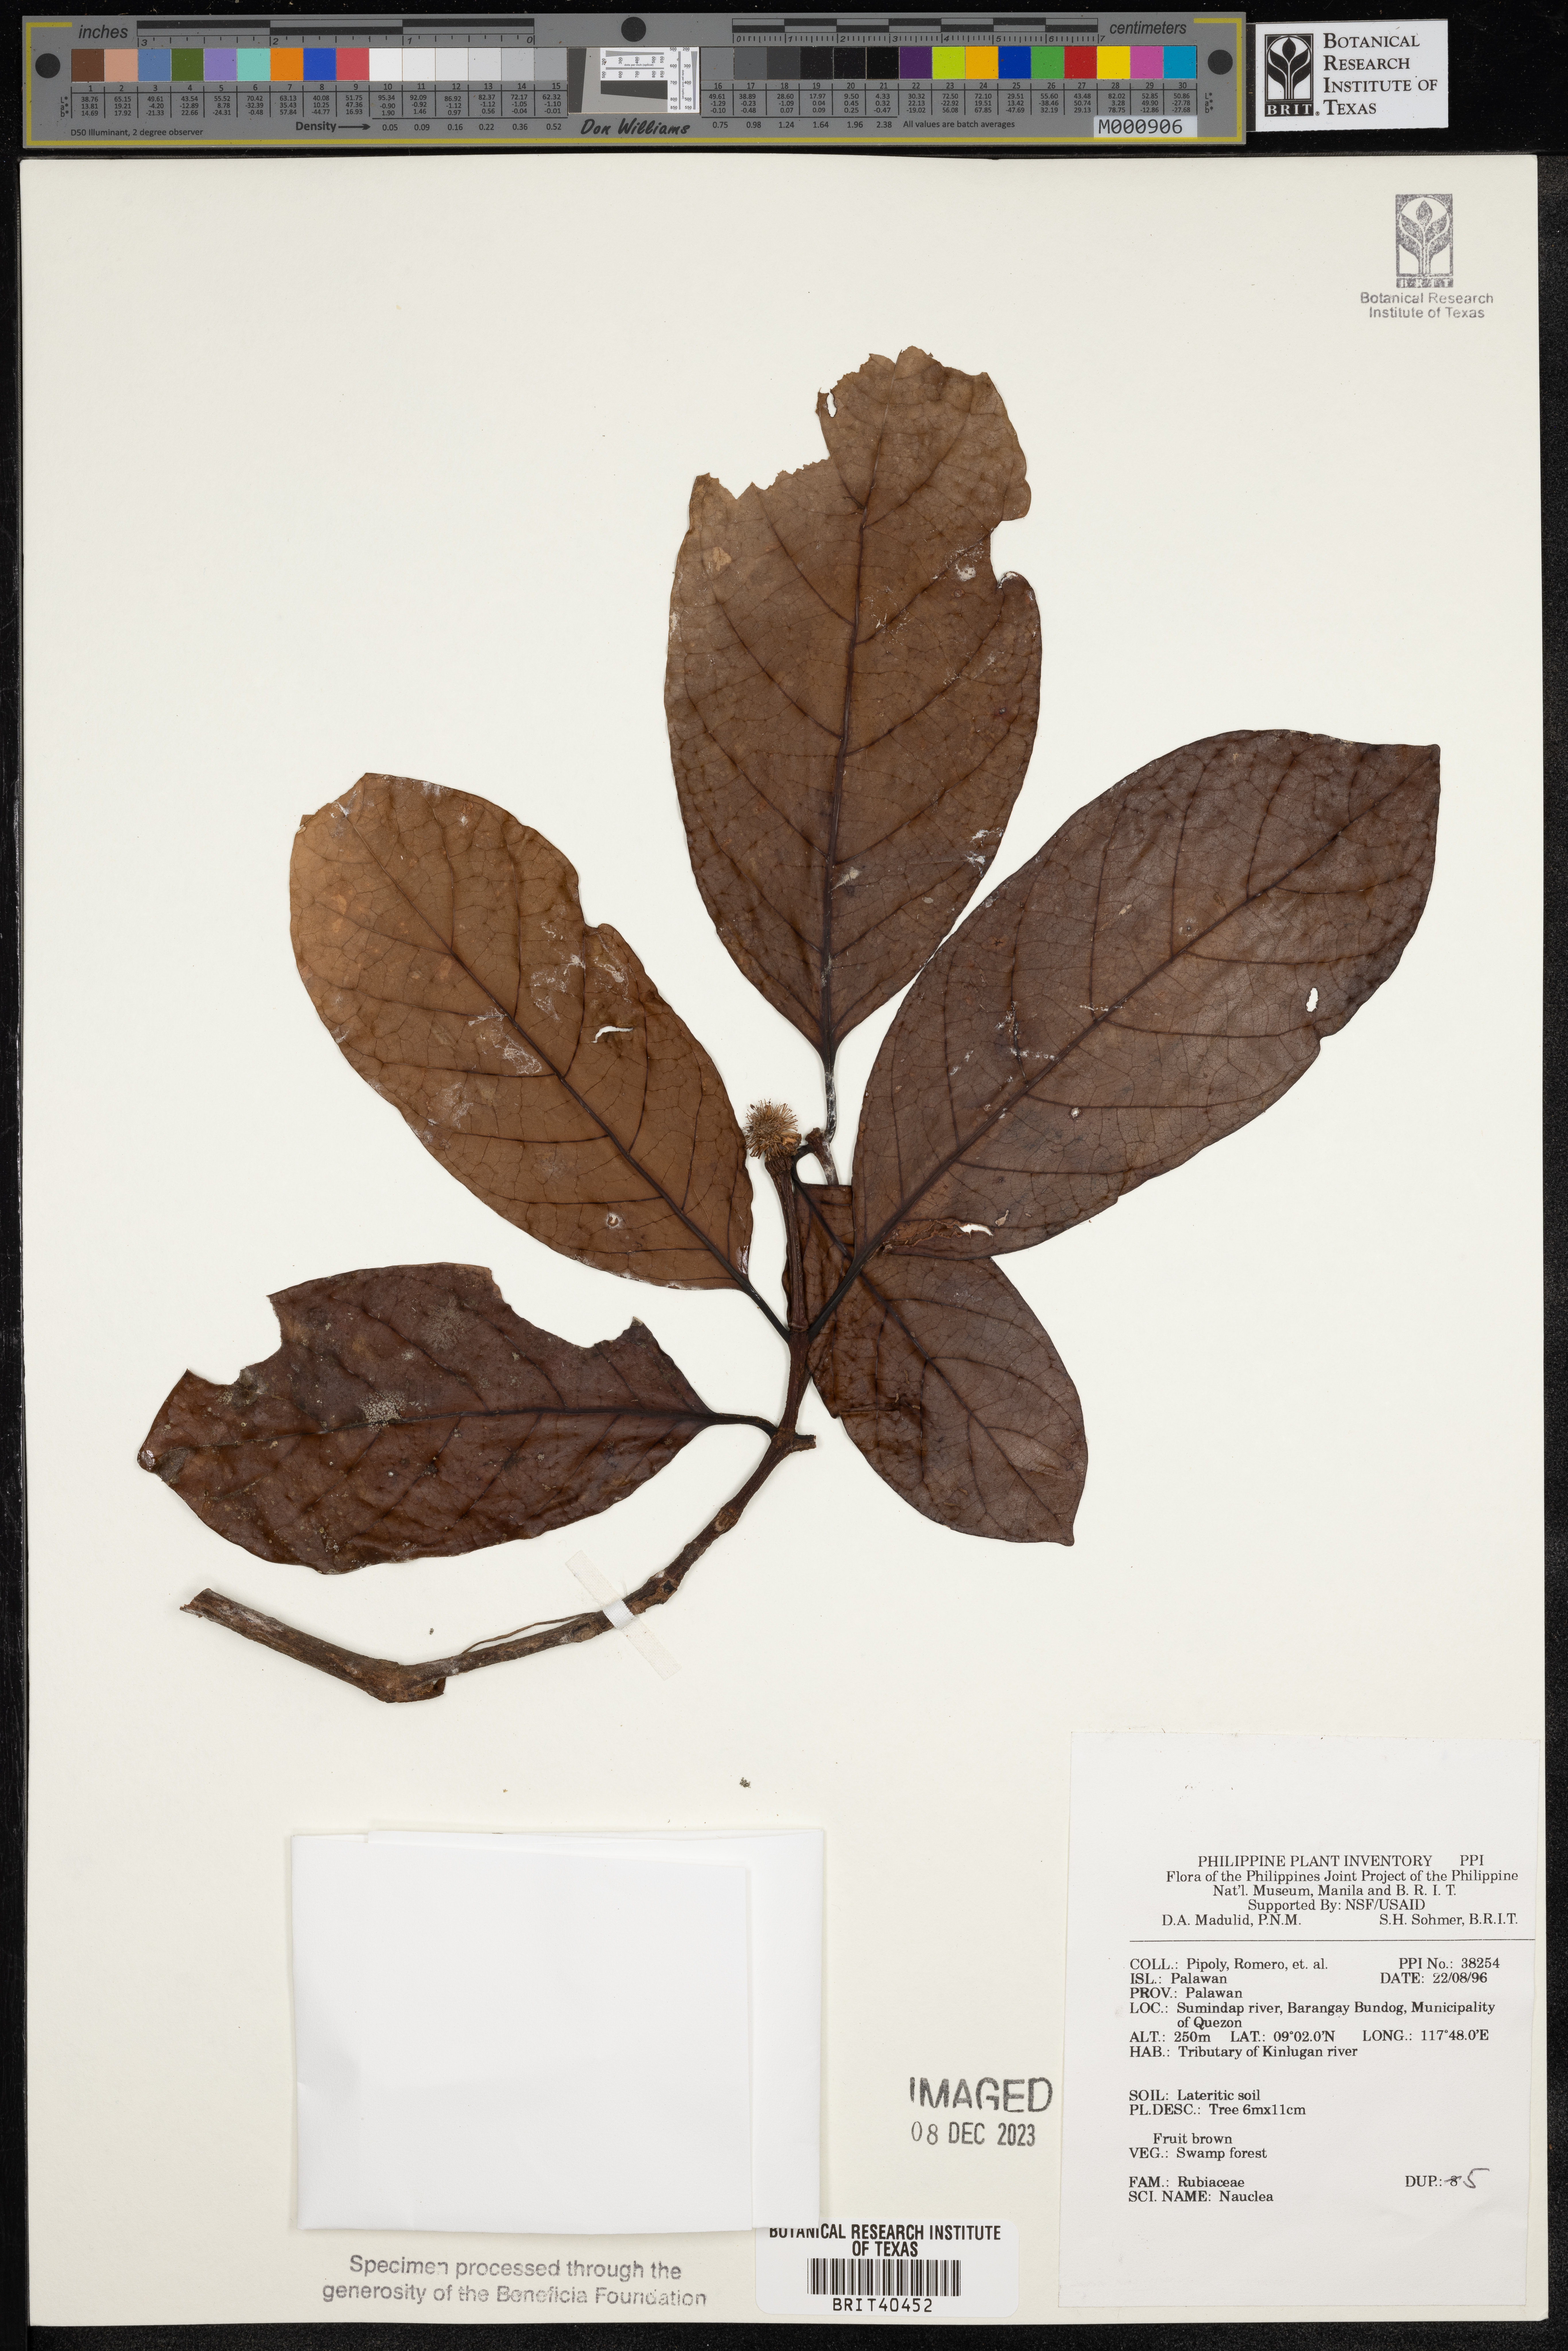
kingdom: Plantae
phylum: Tracheophyta
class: Magnoliopsida
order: Gentianales
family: Rubiaceae
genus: Nauclea
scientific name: Nauclea
